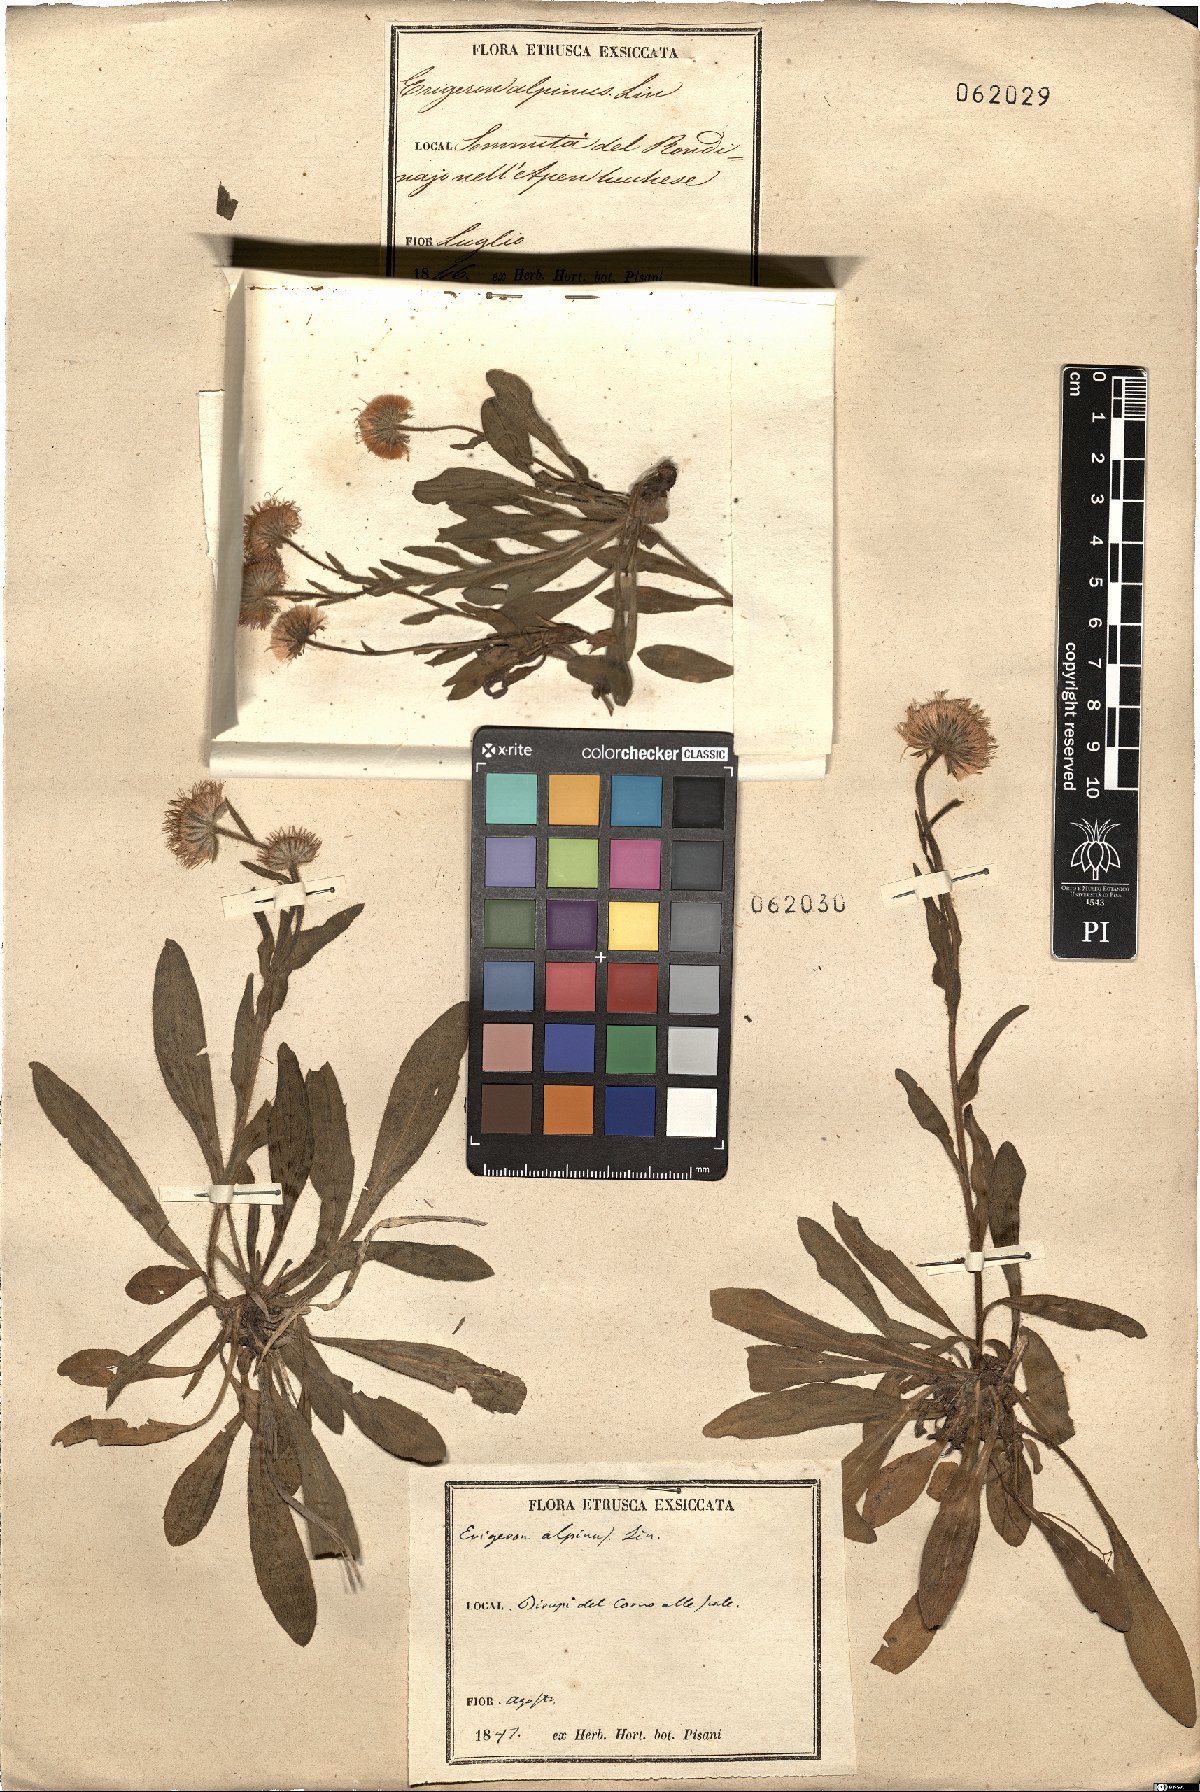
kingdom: Plantae
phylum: Tracheophyta
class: Magnoliopsida
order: Asterales
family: Asteraceae
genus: Erigeron
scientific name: Erigeron alpinus
